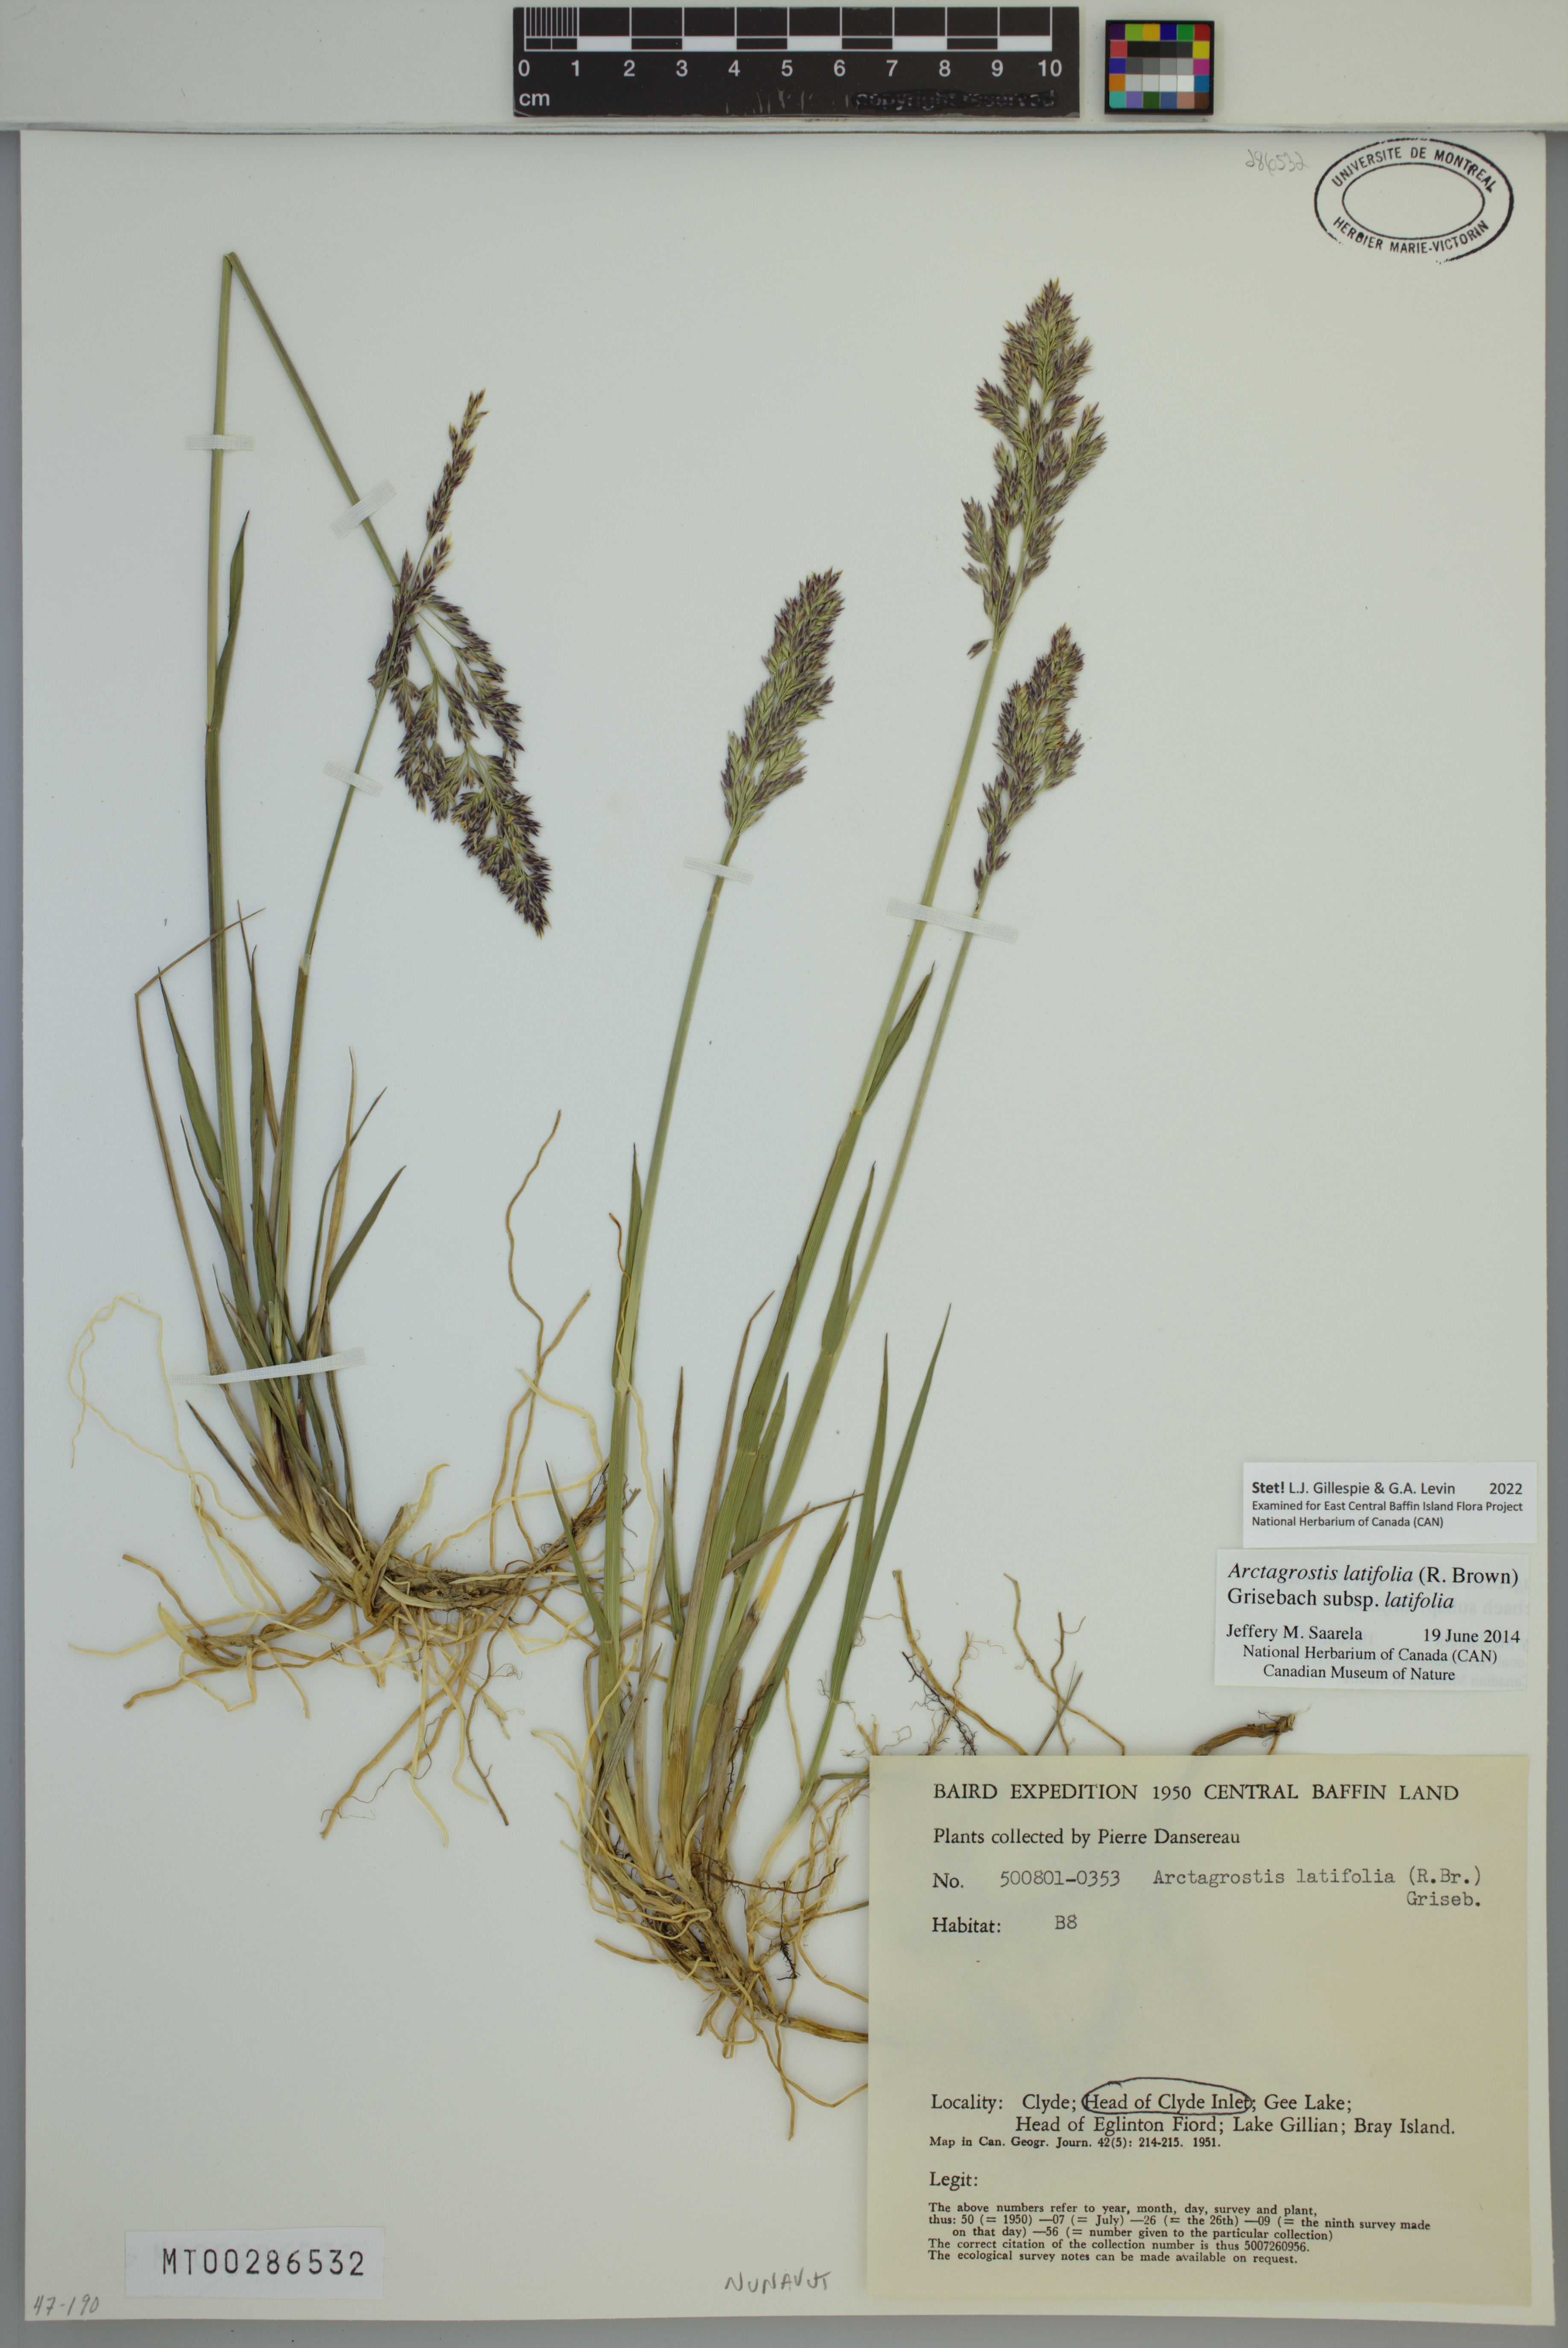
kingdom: Plantae
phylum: Tracheophyta
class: Liliopsida
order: Poales
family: Poaceae
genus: Arctagrostis
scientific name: Arctagrostis latifolia
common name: Arctic grass
